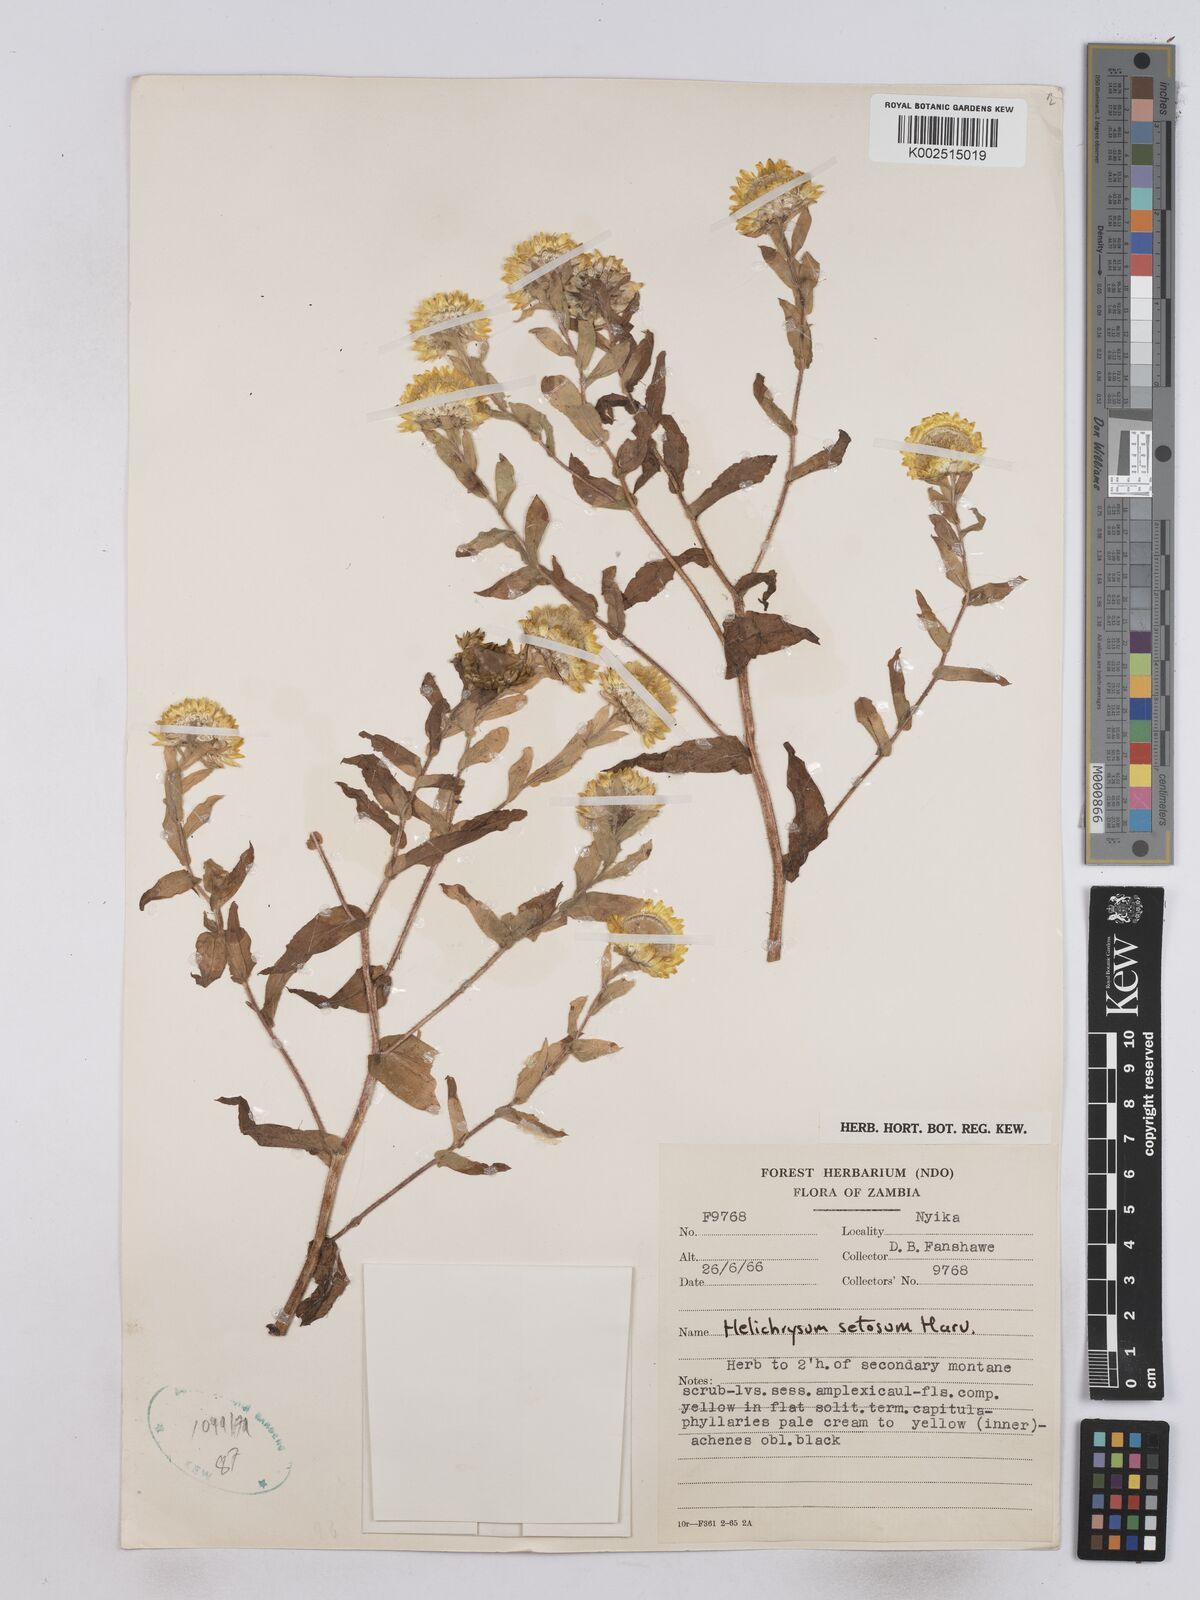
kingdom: Plantae
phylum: Tracheophyta
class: Magnoliopsida
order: Asterales
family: Asteraceae
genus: Helichrysum
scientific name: Helichrysum setosum
